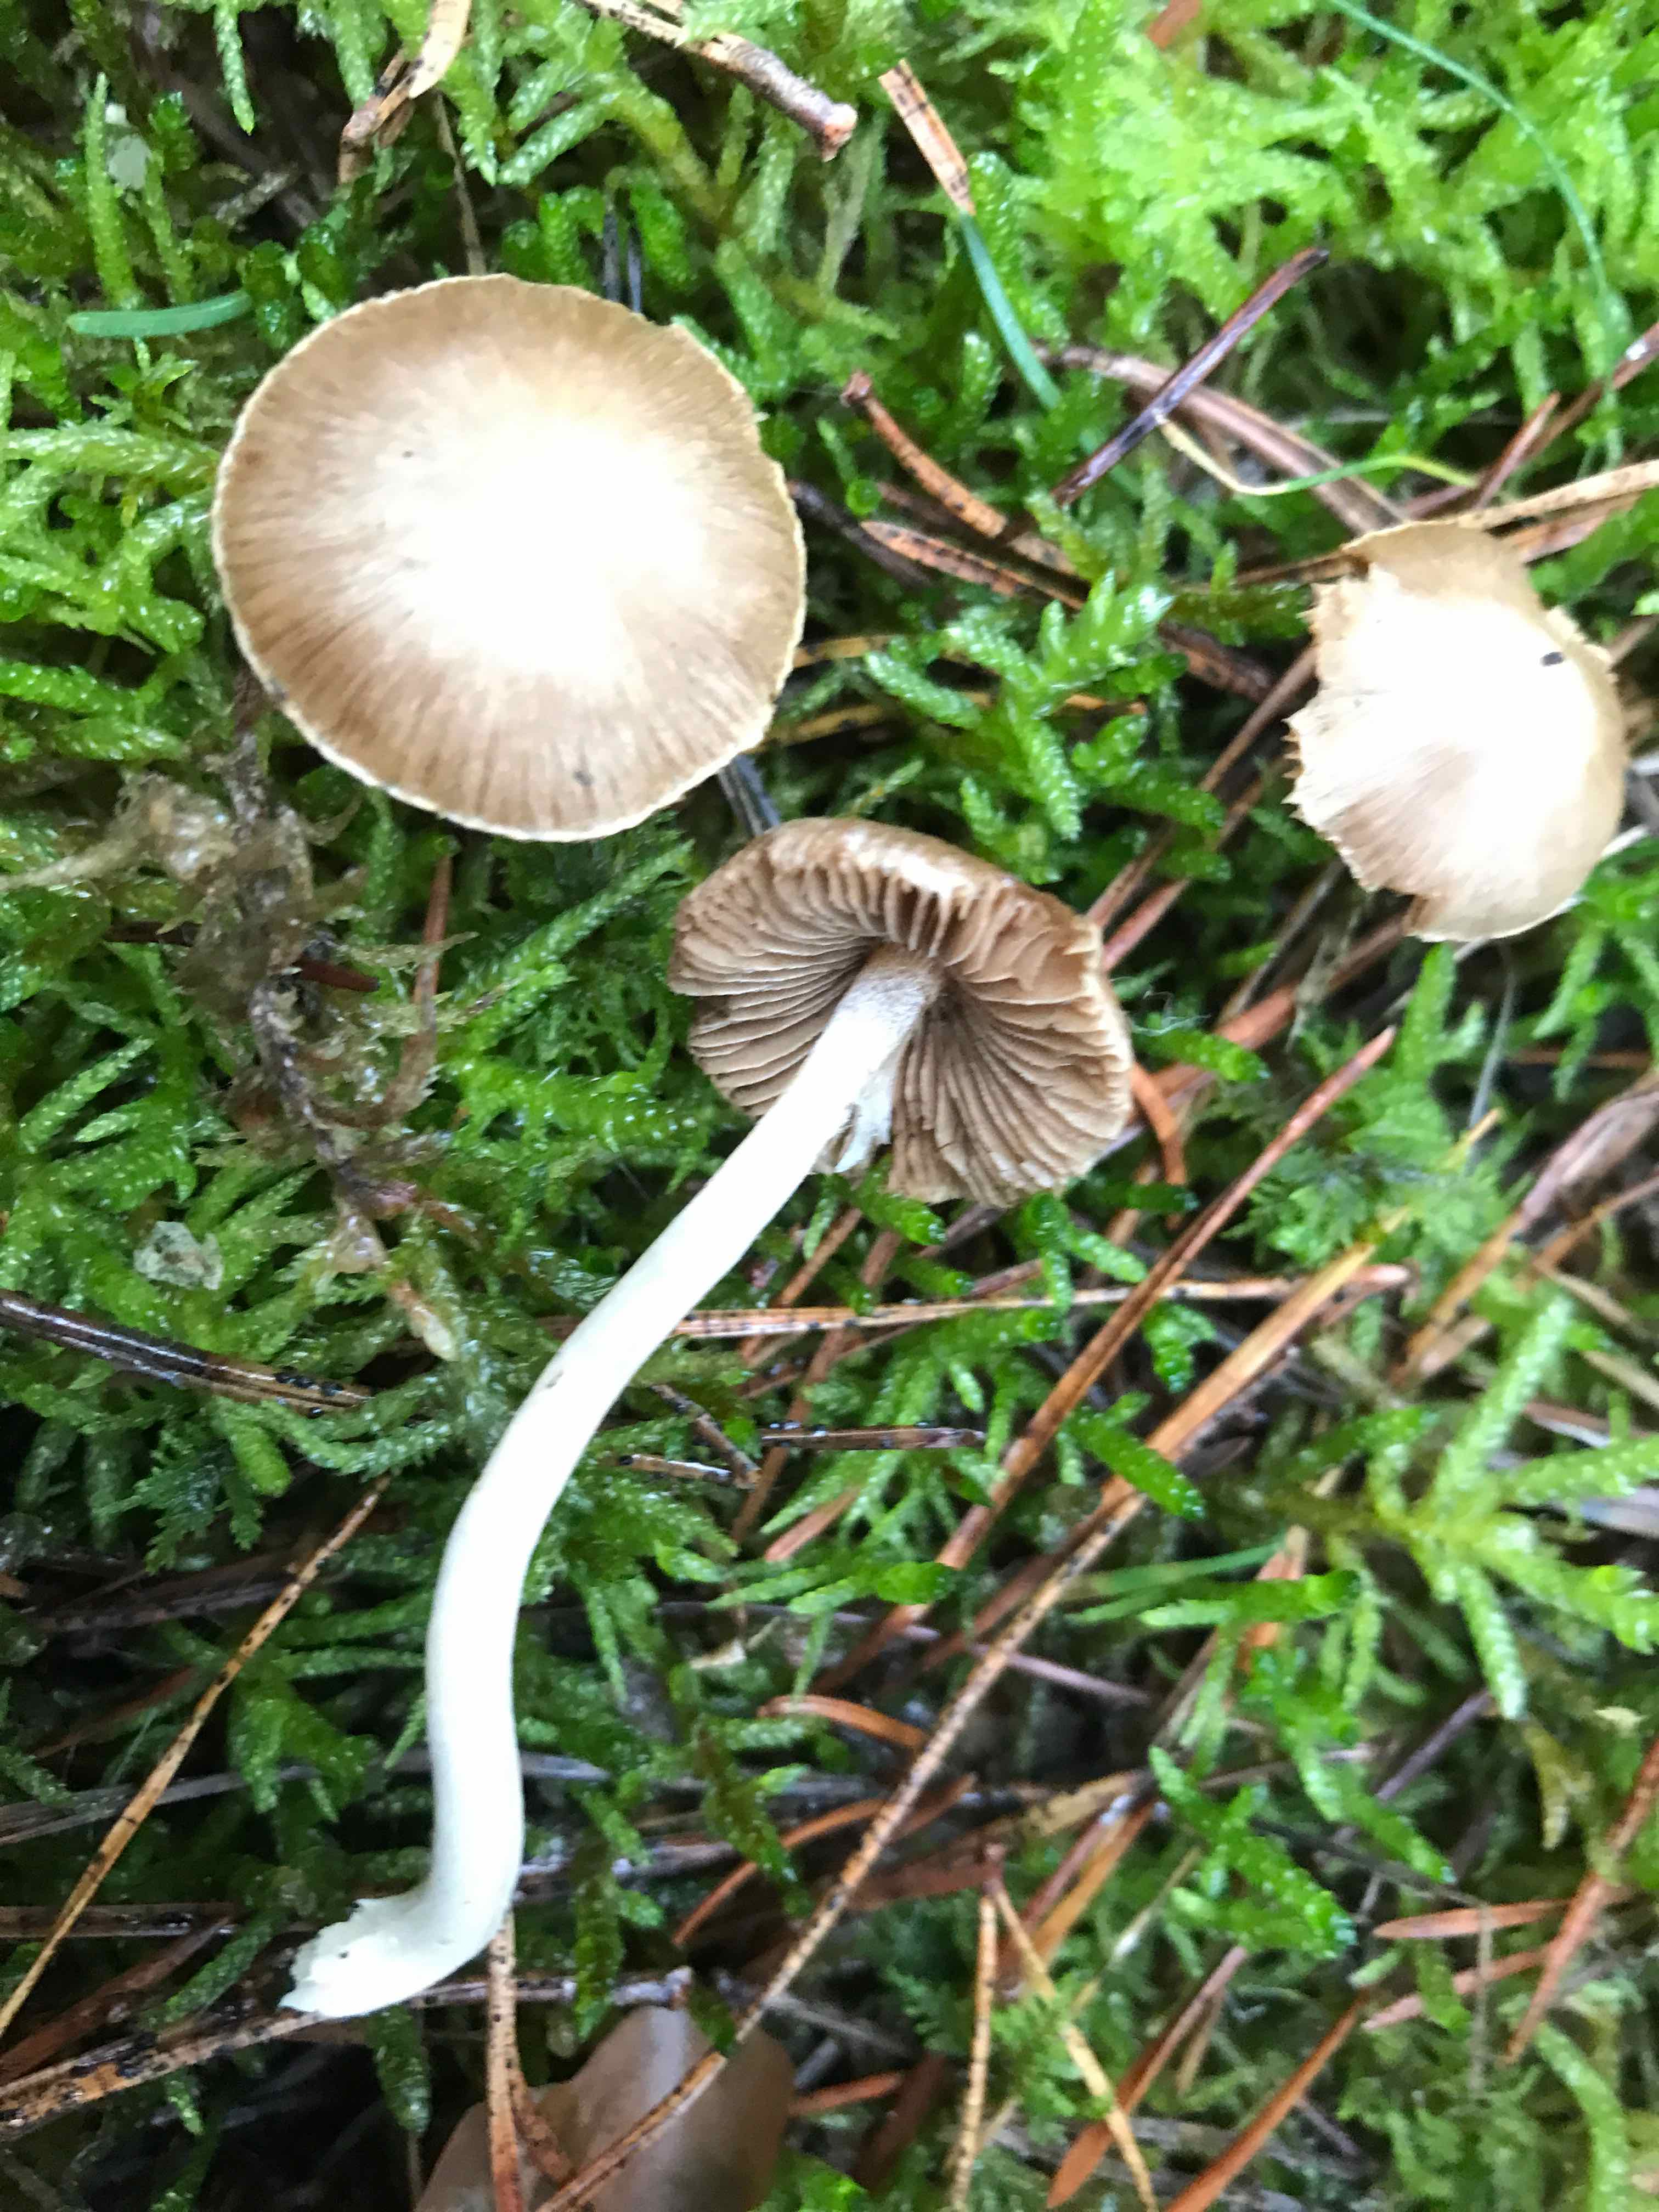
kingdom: Fungi
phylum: Basidiomycota
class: Agaricomycetes
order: Agaricales
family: Inocybaceae
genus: Inocybe
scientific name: Inocybe
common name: almindelig trævlhat
